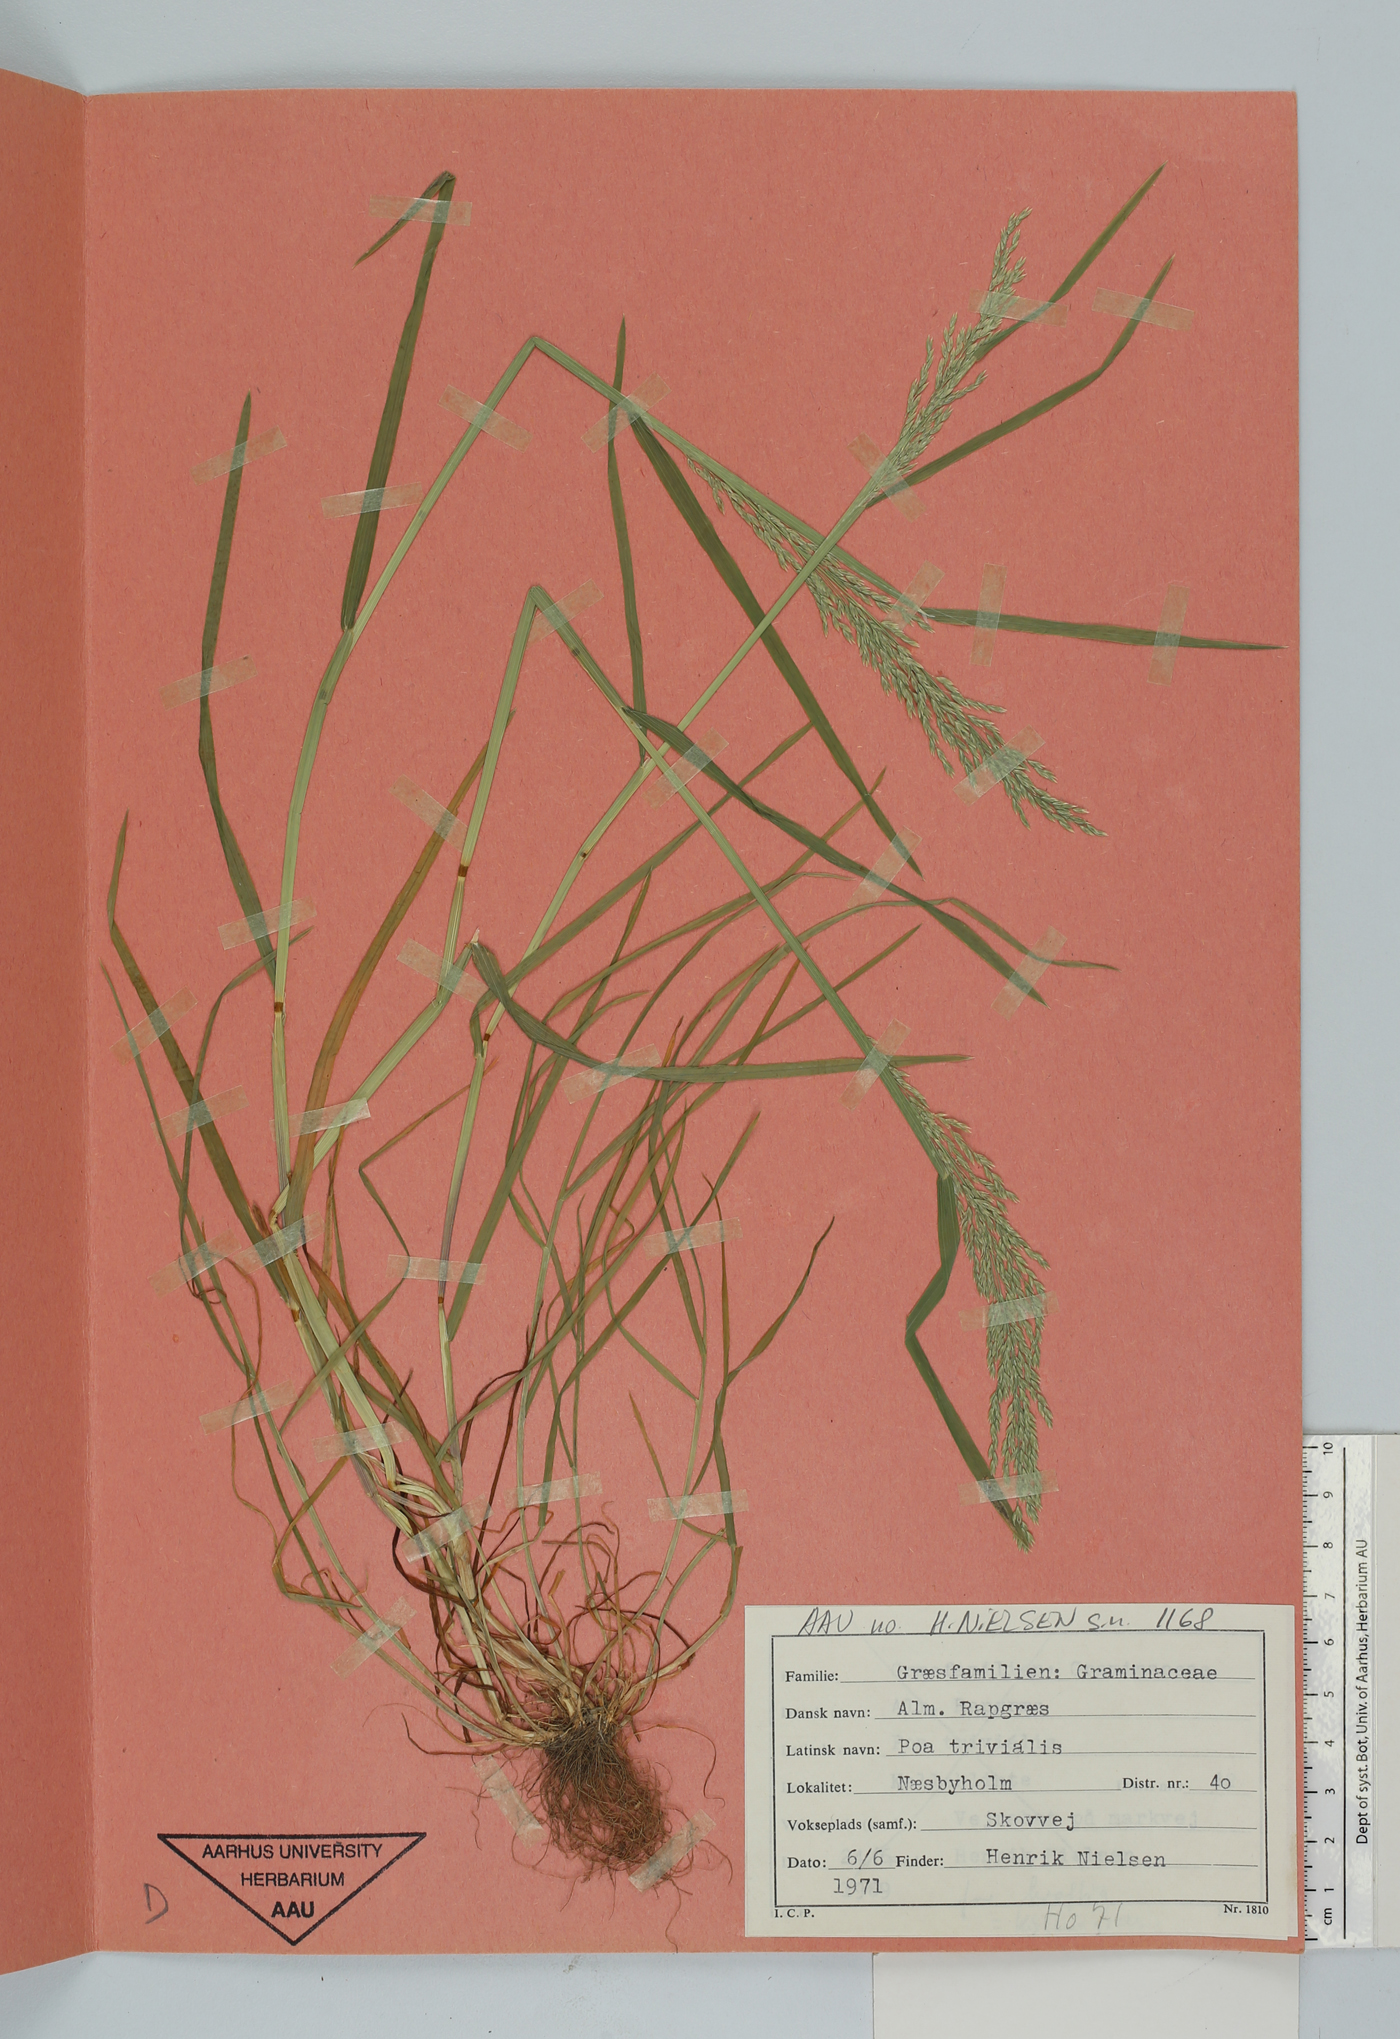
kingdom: Plantae
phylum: Tracheophyta
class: Liliopsida
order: Poales
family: Poaceae
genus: Poa
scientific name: Poa trivialis
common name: Rough bluegrass
